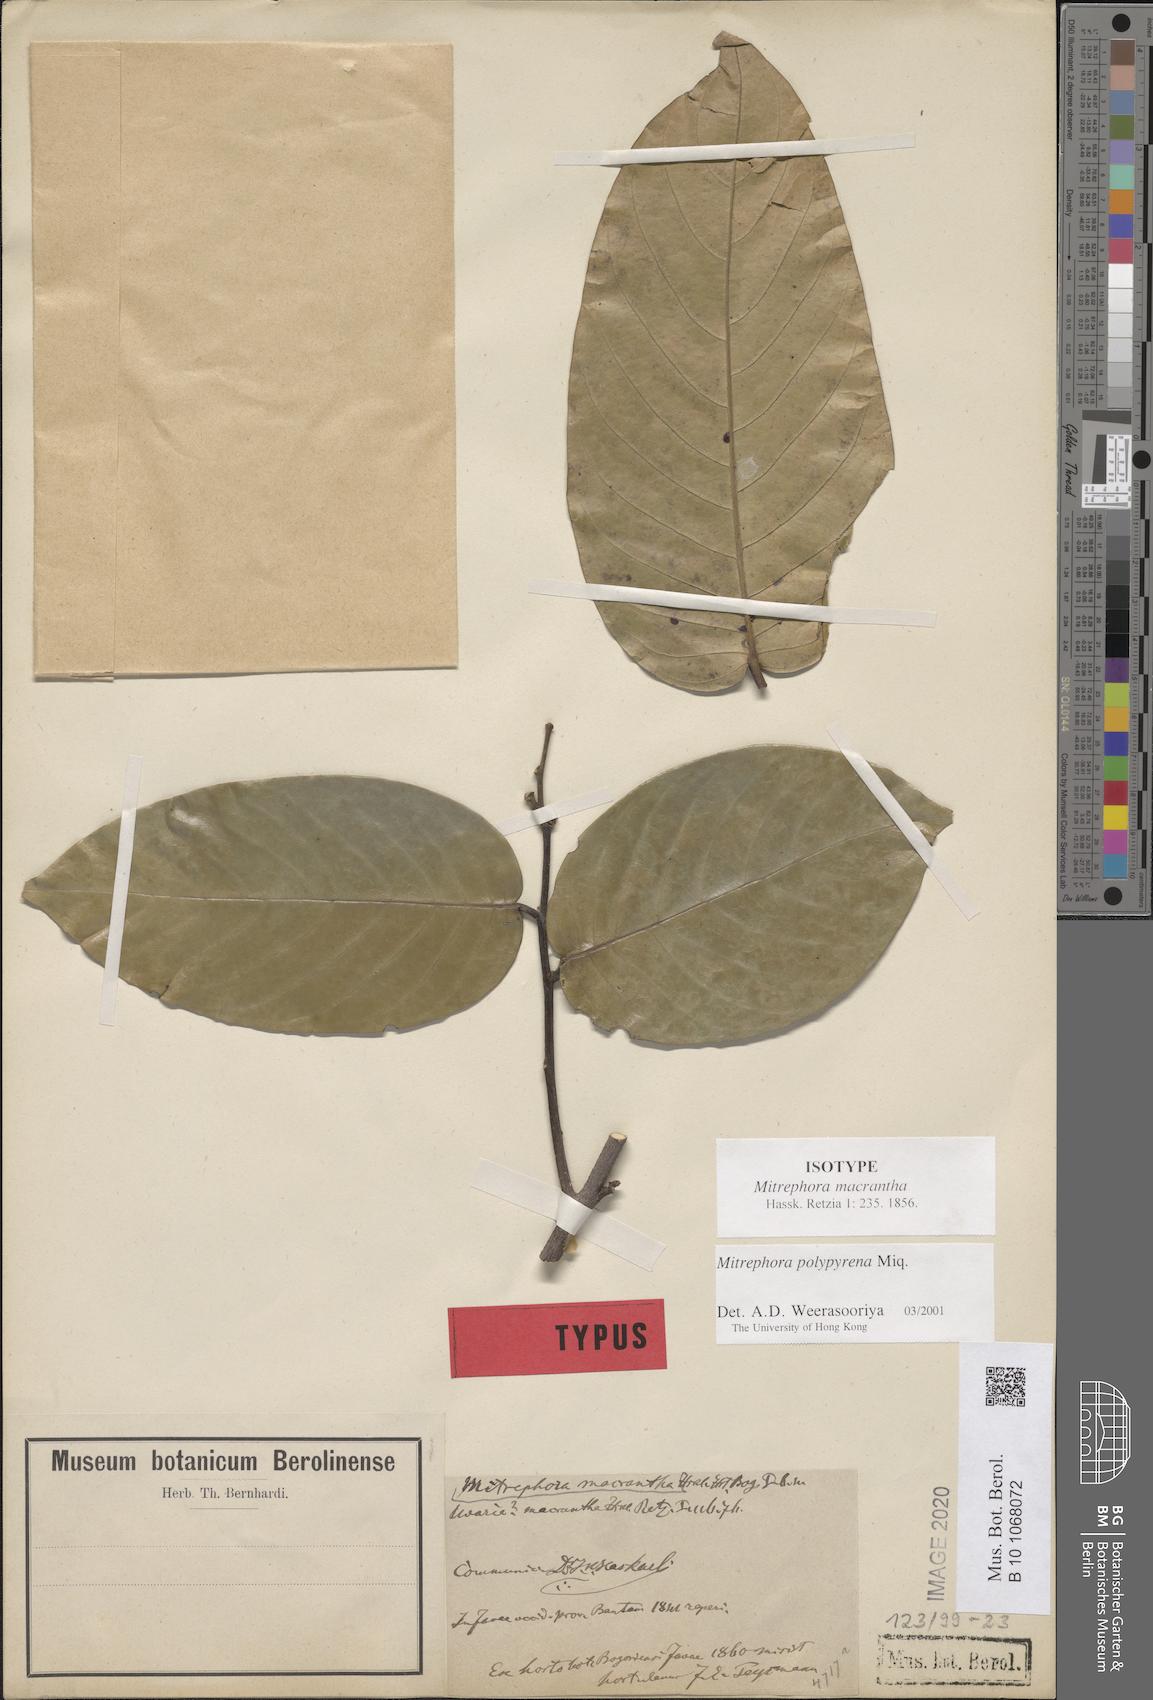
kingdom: Plantae
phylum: Tracheophyta
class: Magnoliopsida
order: Magnoliales
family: Annonaceae
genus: Mitrephora
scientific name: Mitrephora polypyrena
